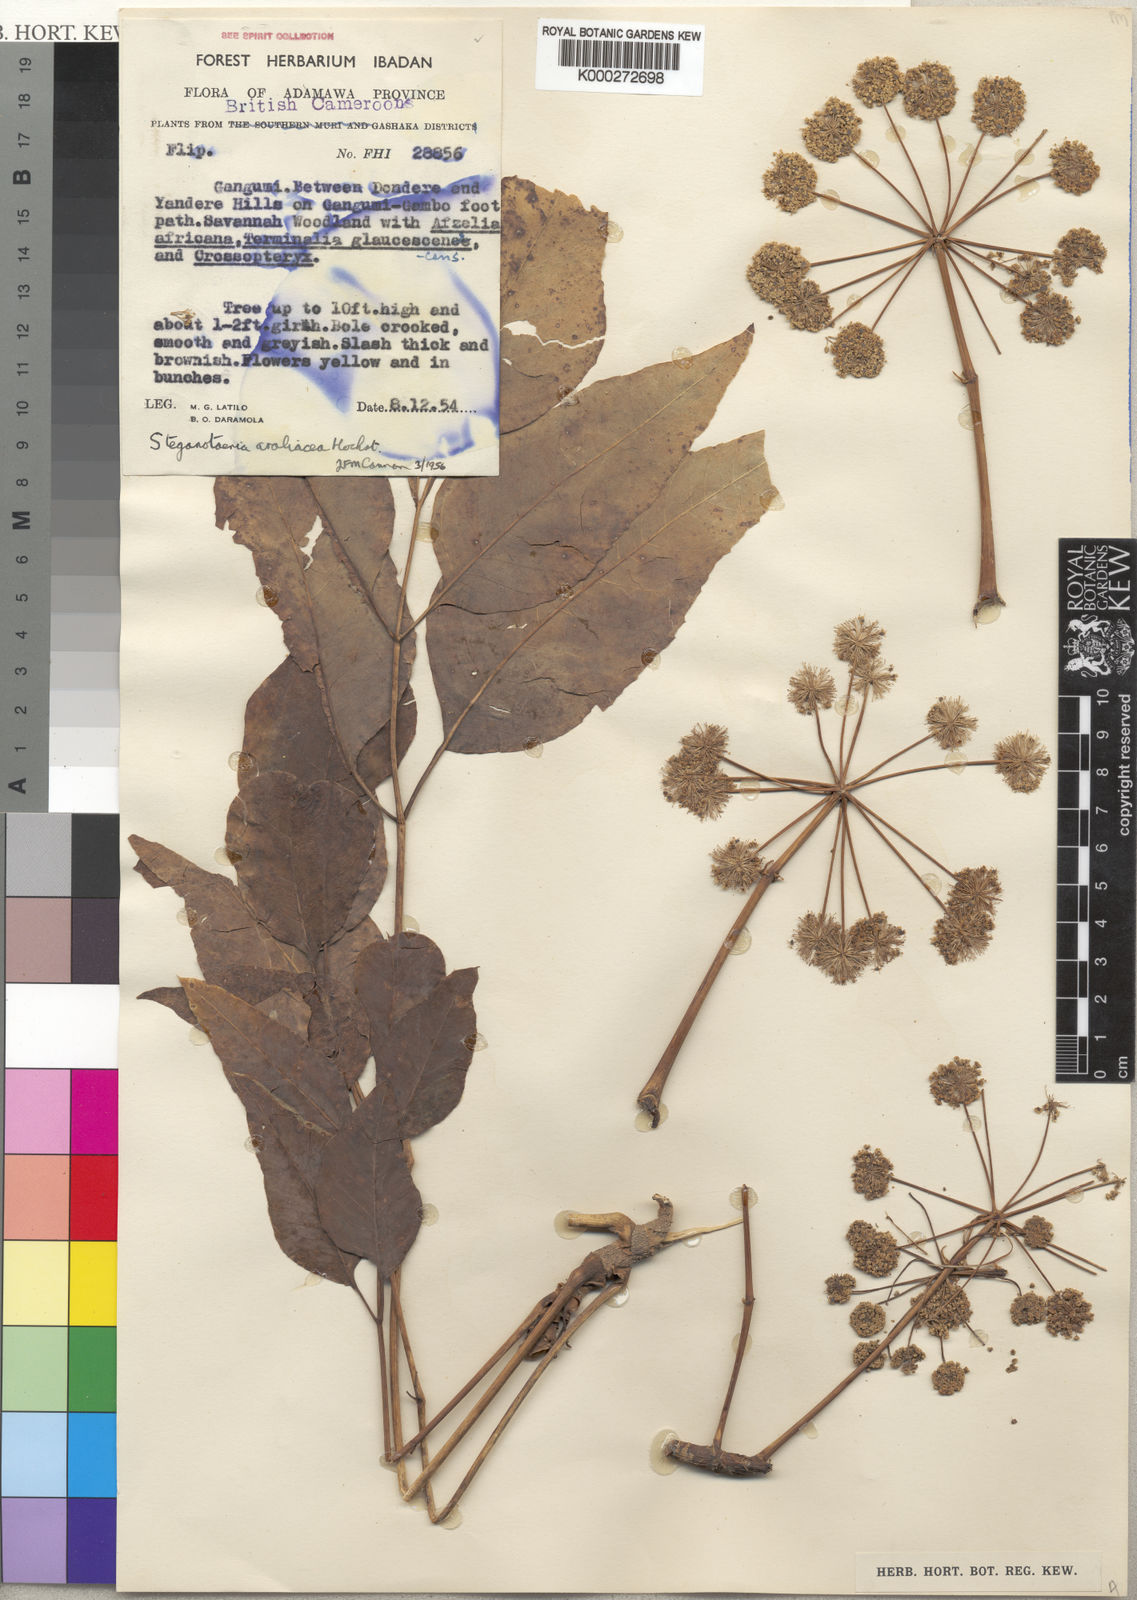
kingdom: Plantae
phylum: Tracheophyta
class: Magnoliopsida
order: Apiales
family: Apiaceae
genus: Steganotaenia
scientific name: Steganotaenia araliacea
